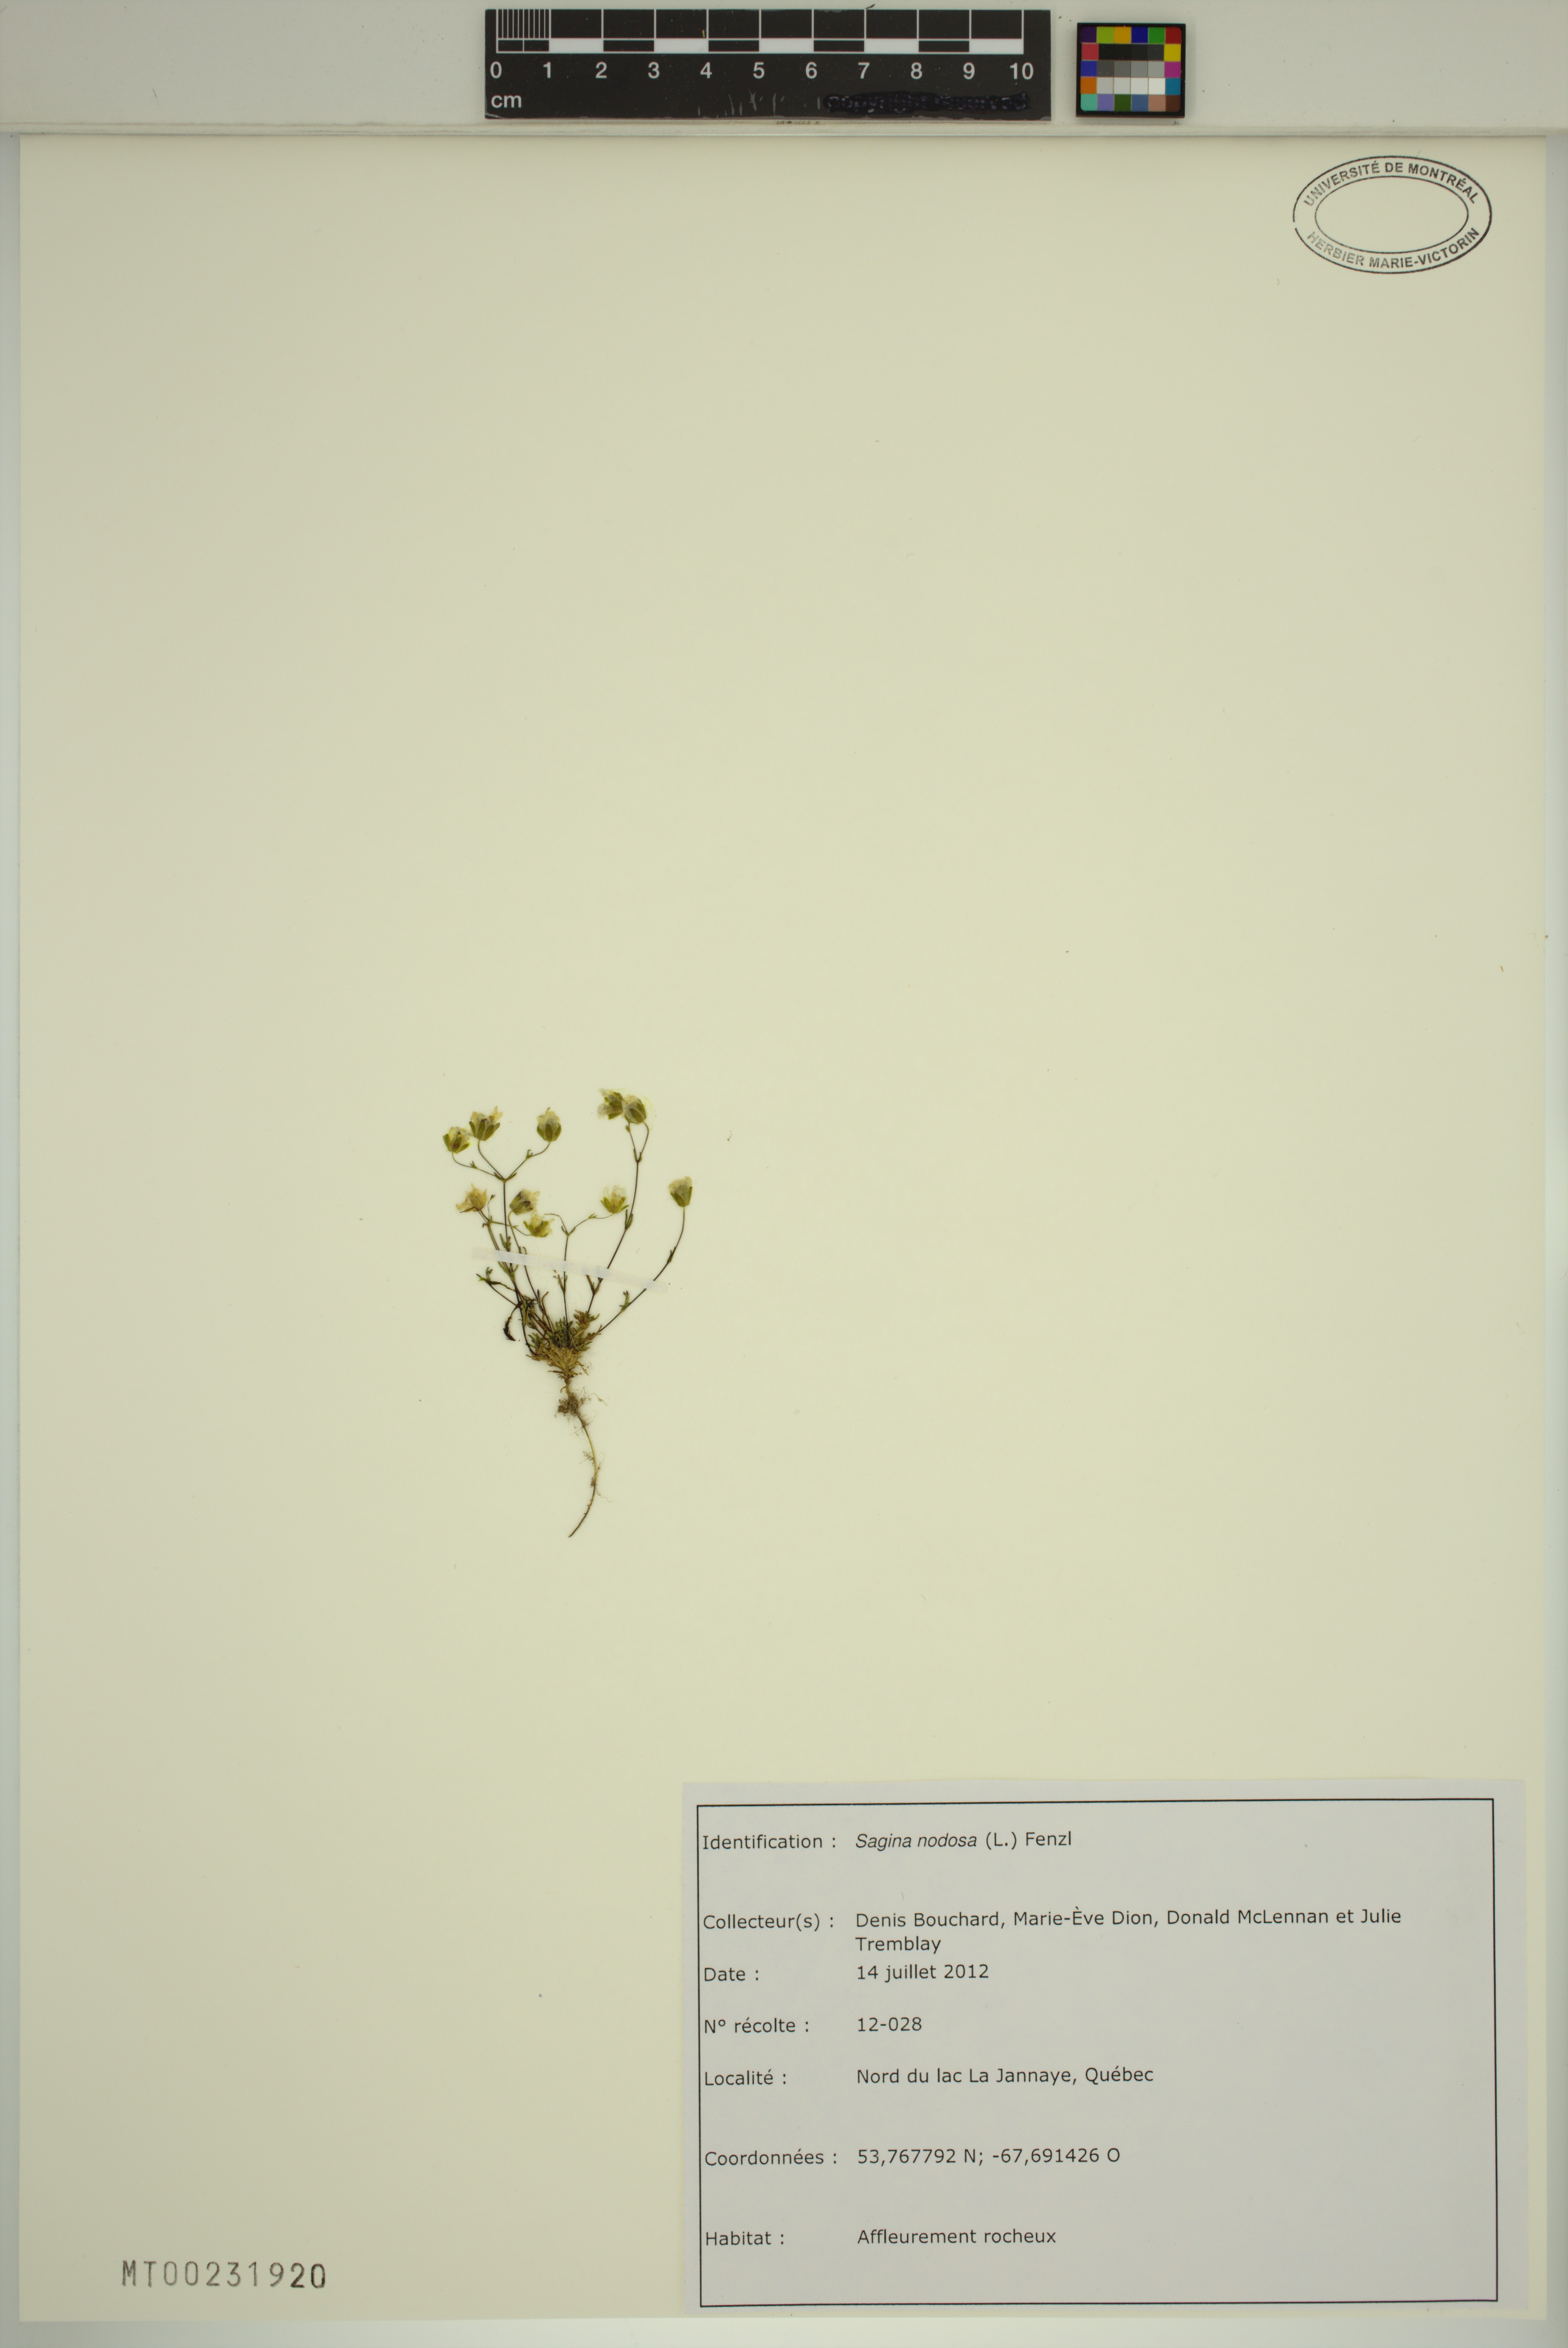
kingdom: Plantae
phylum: Tracheophyta
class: Magnoliopsida
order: Caryophyllales
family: Caryophyllaceae
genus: Sagina
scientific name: Sagina nodosa
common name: Knotted pearlwort
